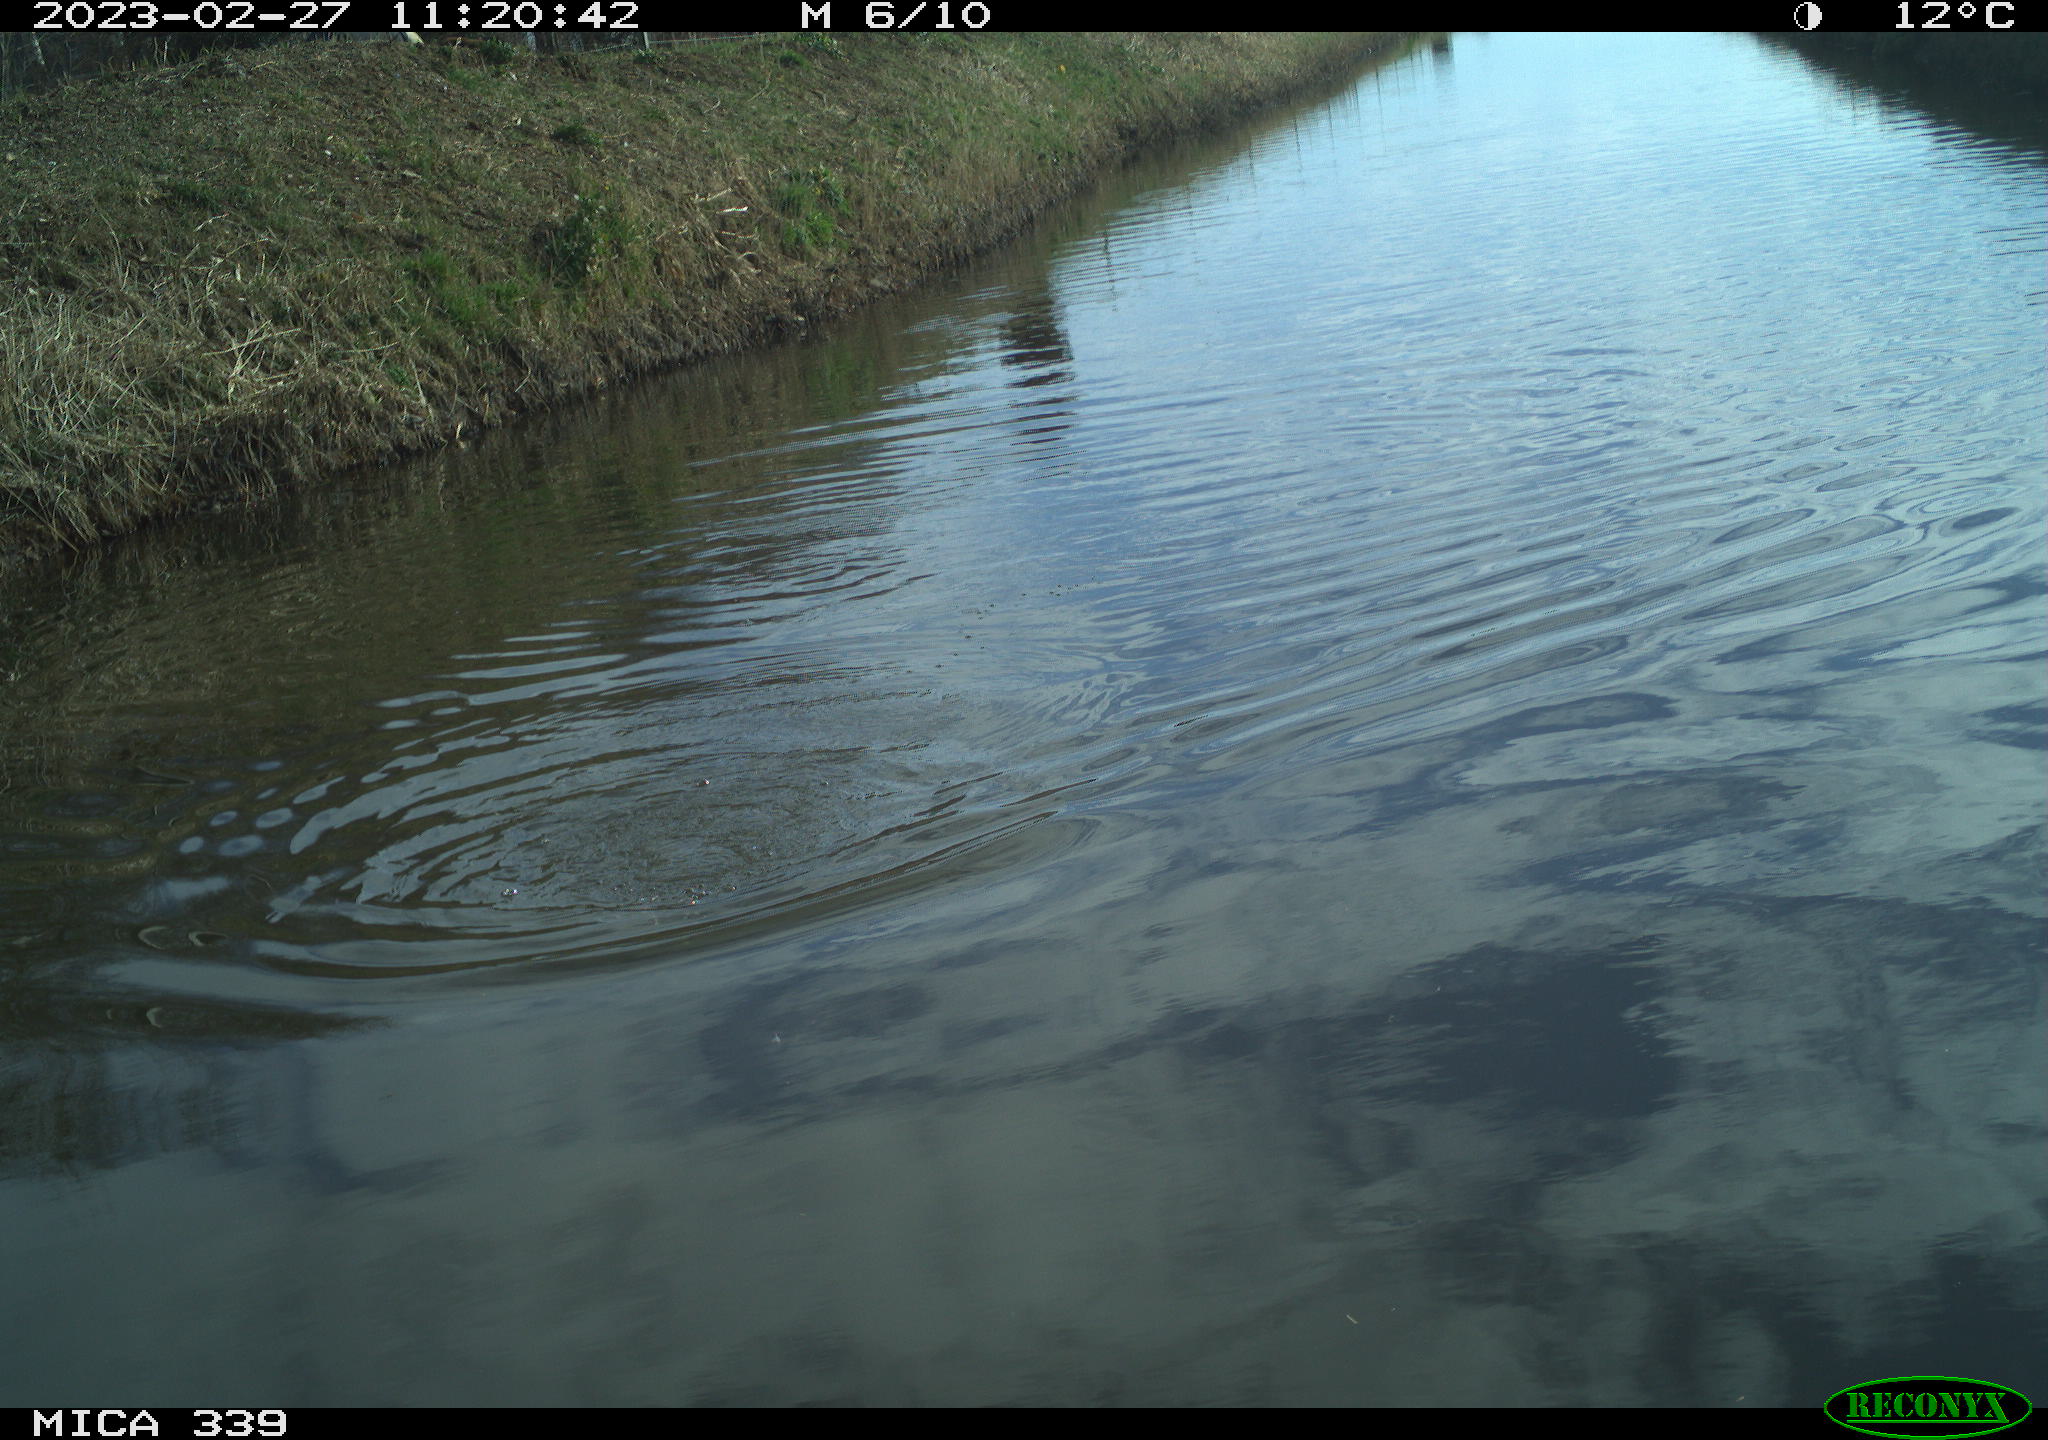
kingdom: Animalia
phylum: Chordata
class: Aves
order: Suliformes
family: Phalacrocoracidae
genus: Phalacrocorax
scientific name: Phalacrocorax carbo
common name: Great cormorant
